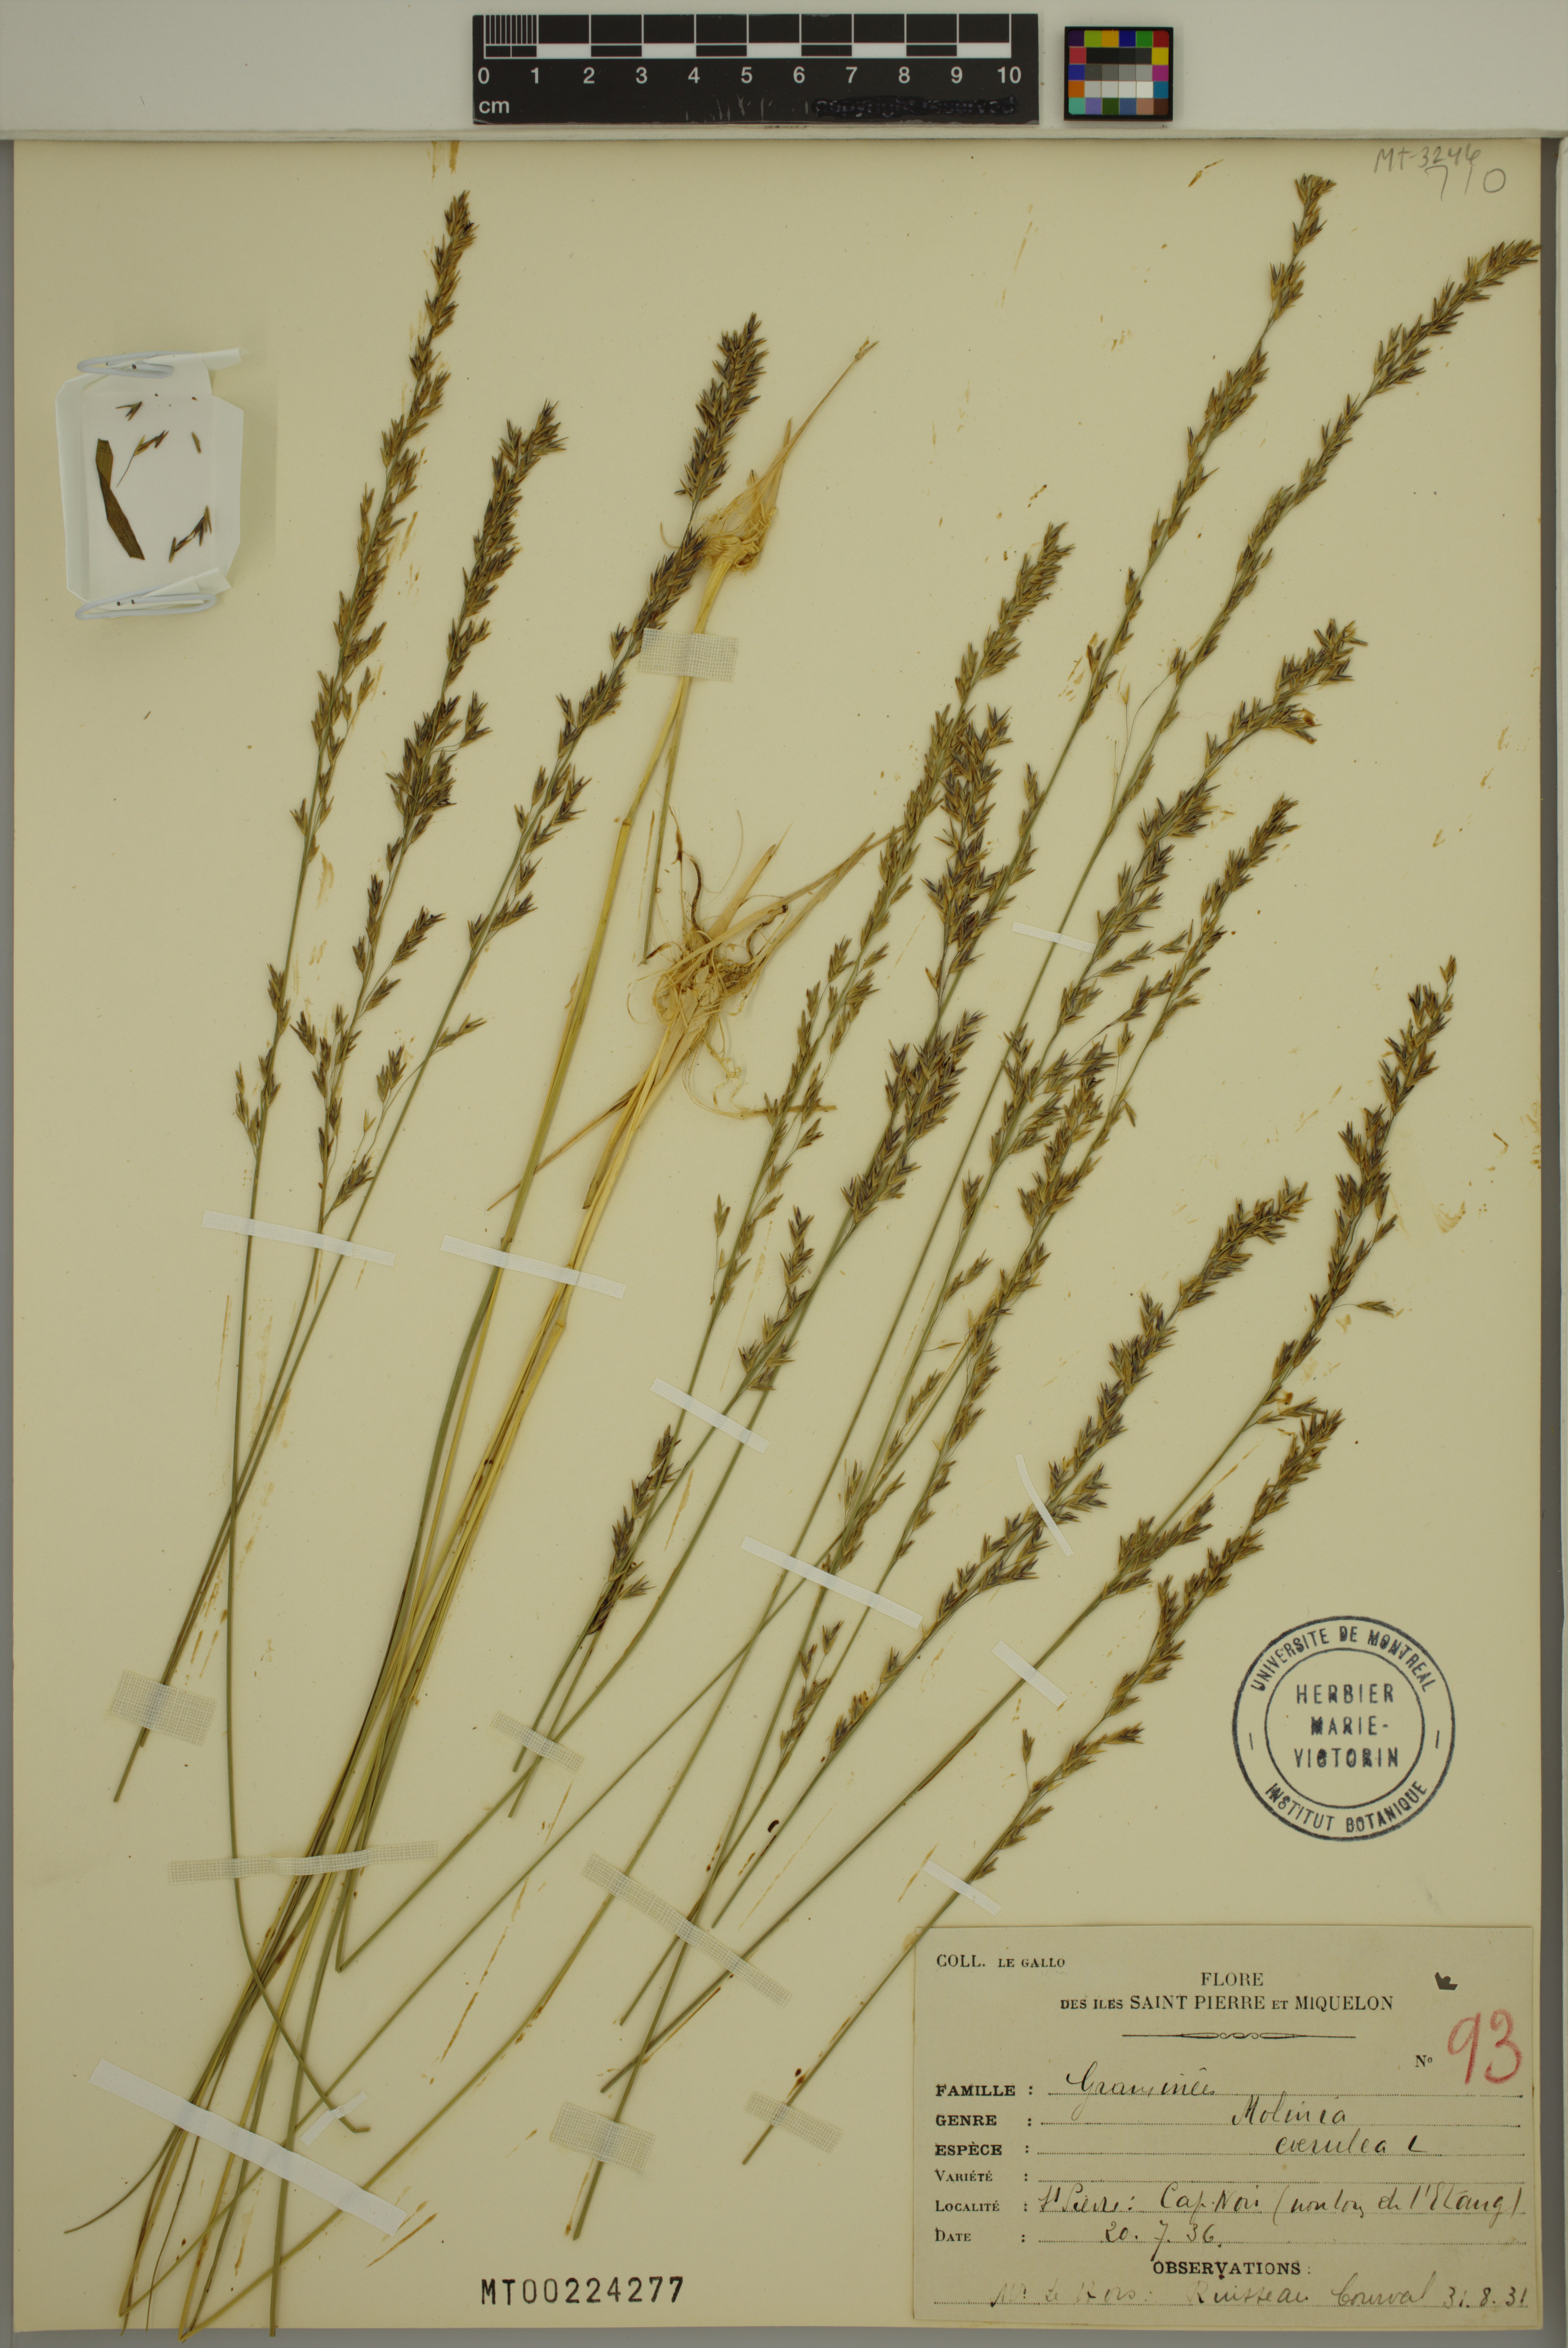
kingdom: Plantae
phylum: Tracheophyta
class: Liliopsida
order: Poales
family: Poaceae
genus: Molinia
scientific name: Molinia caerulea
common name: Purple moor-grass
